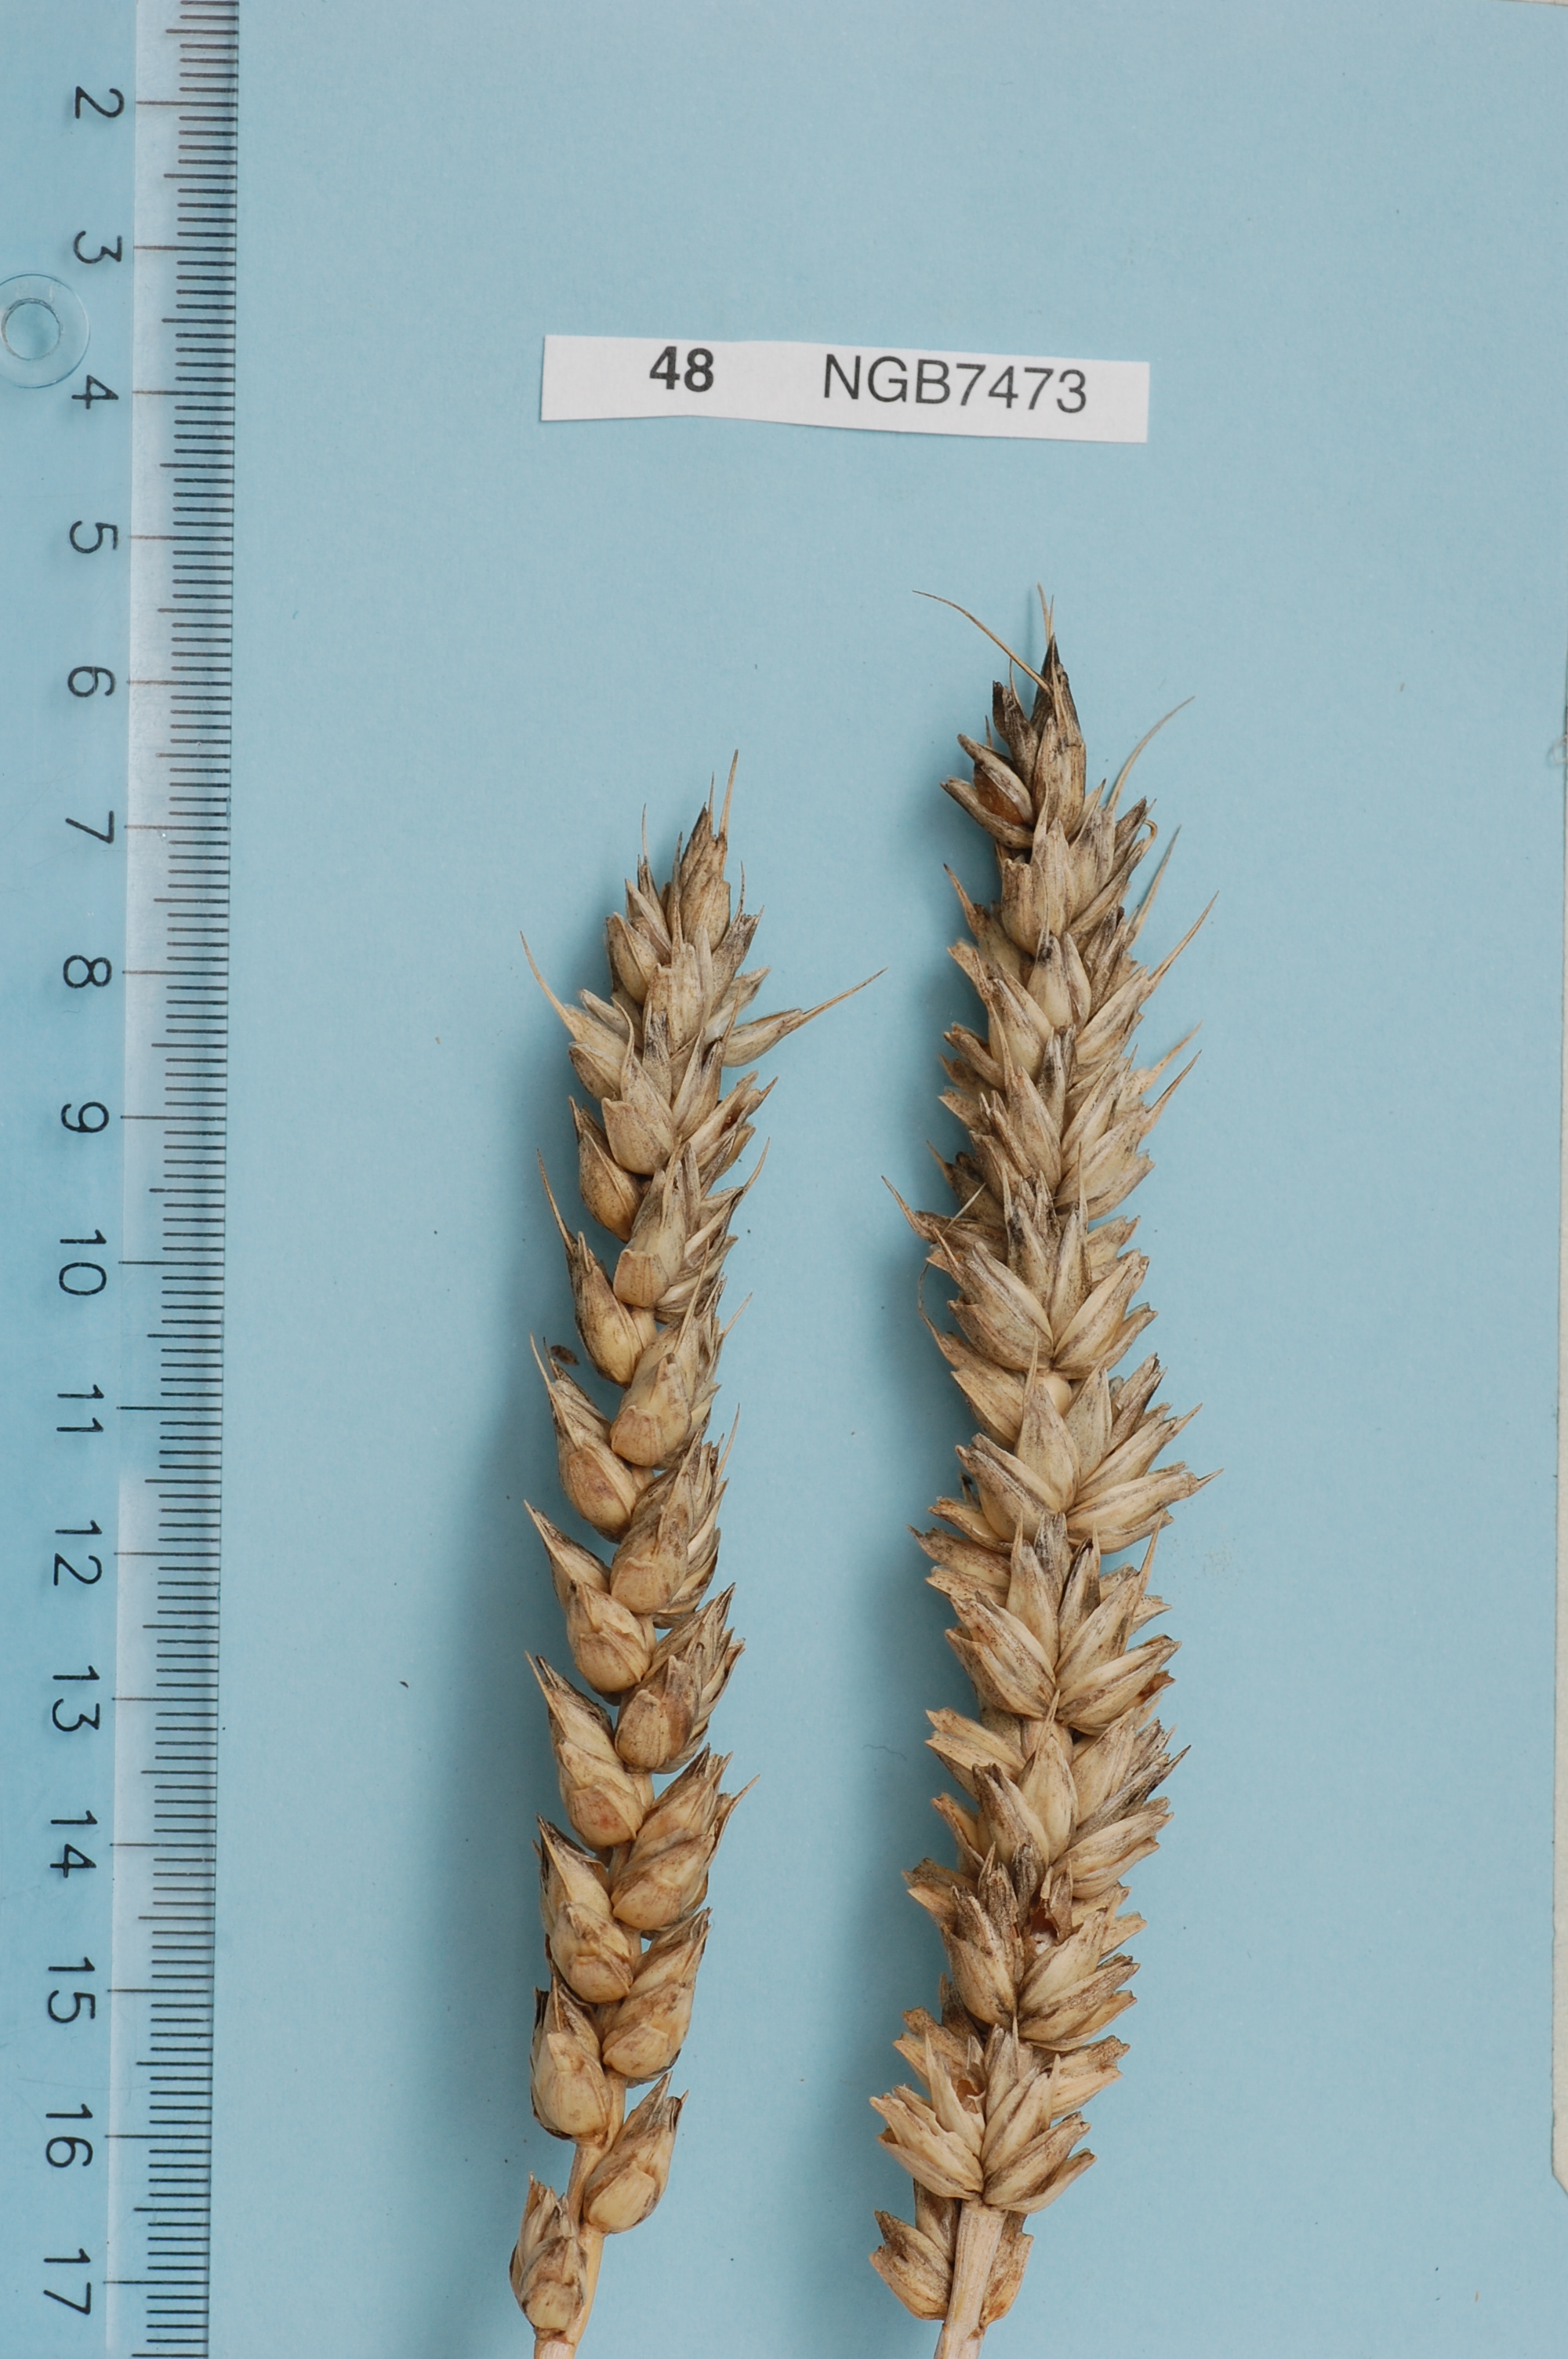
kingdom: Plantae
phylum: Tracheophyta
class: Liliopsida
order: Poales
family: Poaceae
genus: Triticum
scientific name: Triticum aestivum
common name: Common wheat
